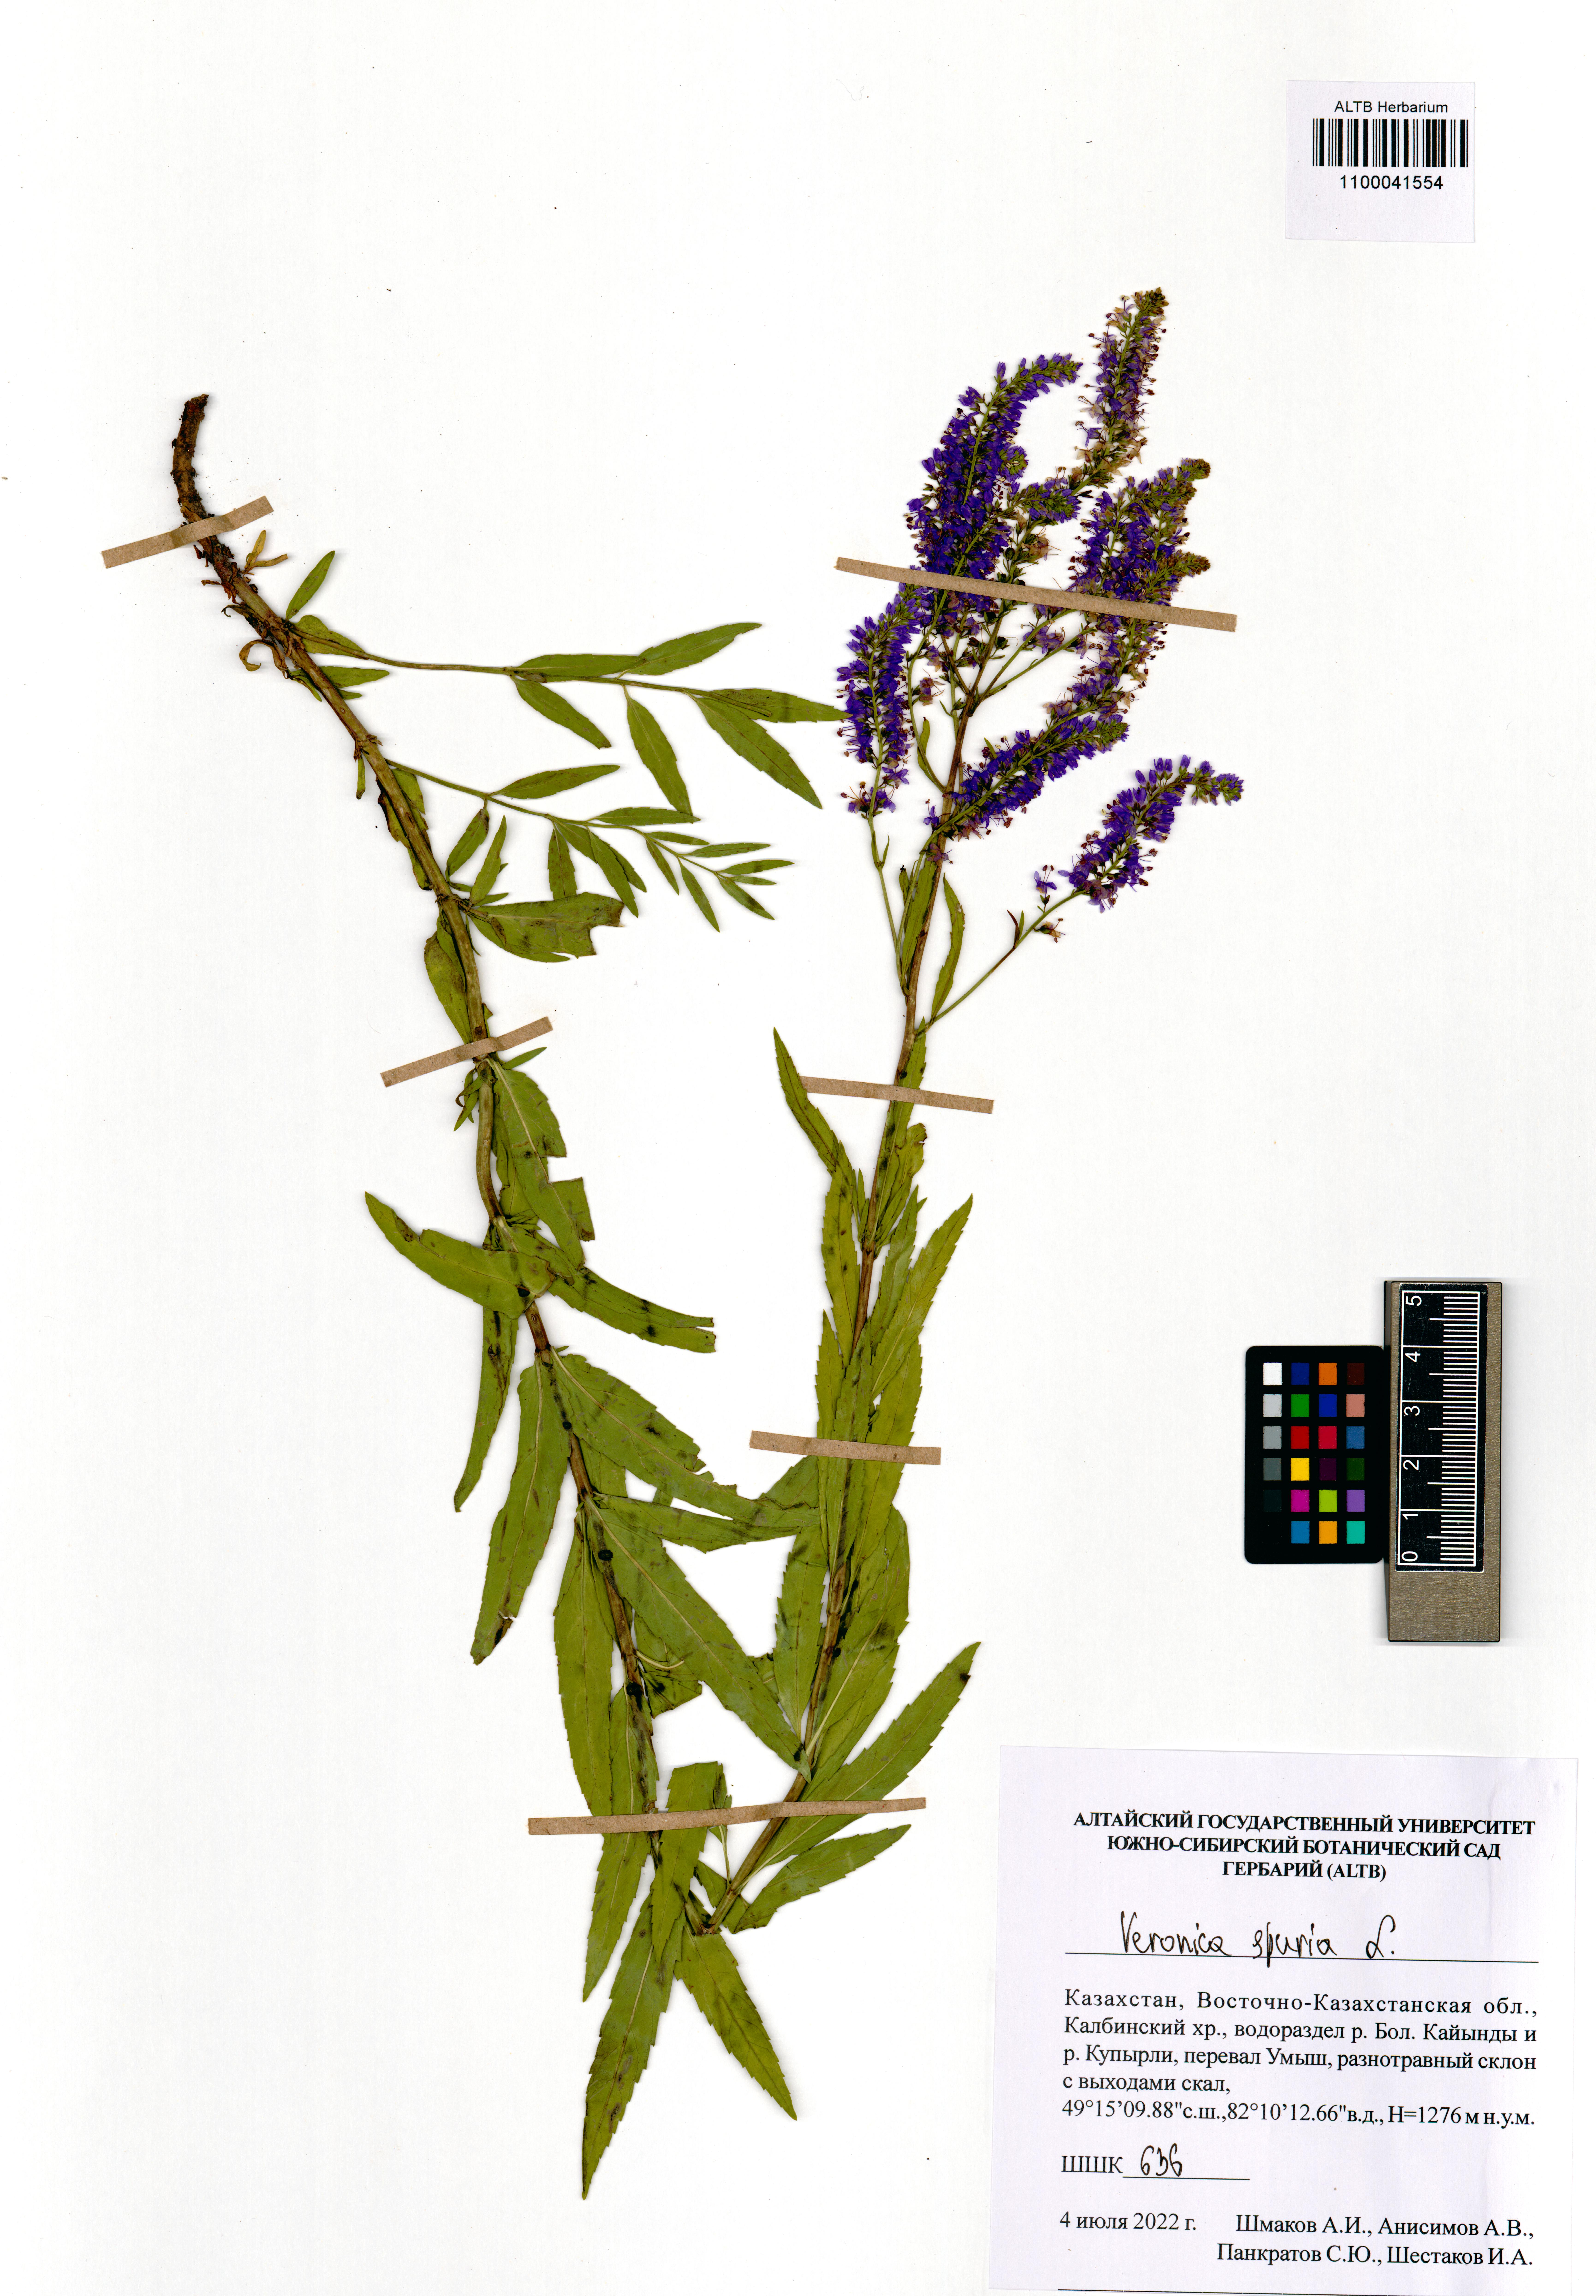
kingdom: Plantae
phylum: Tracheophyta
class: Magnoliopsida
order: Lamiales
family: Plantaginaceae
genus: Veronica
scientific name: Veronica spuria
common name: Bastard speedwell
